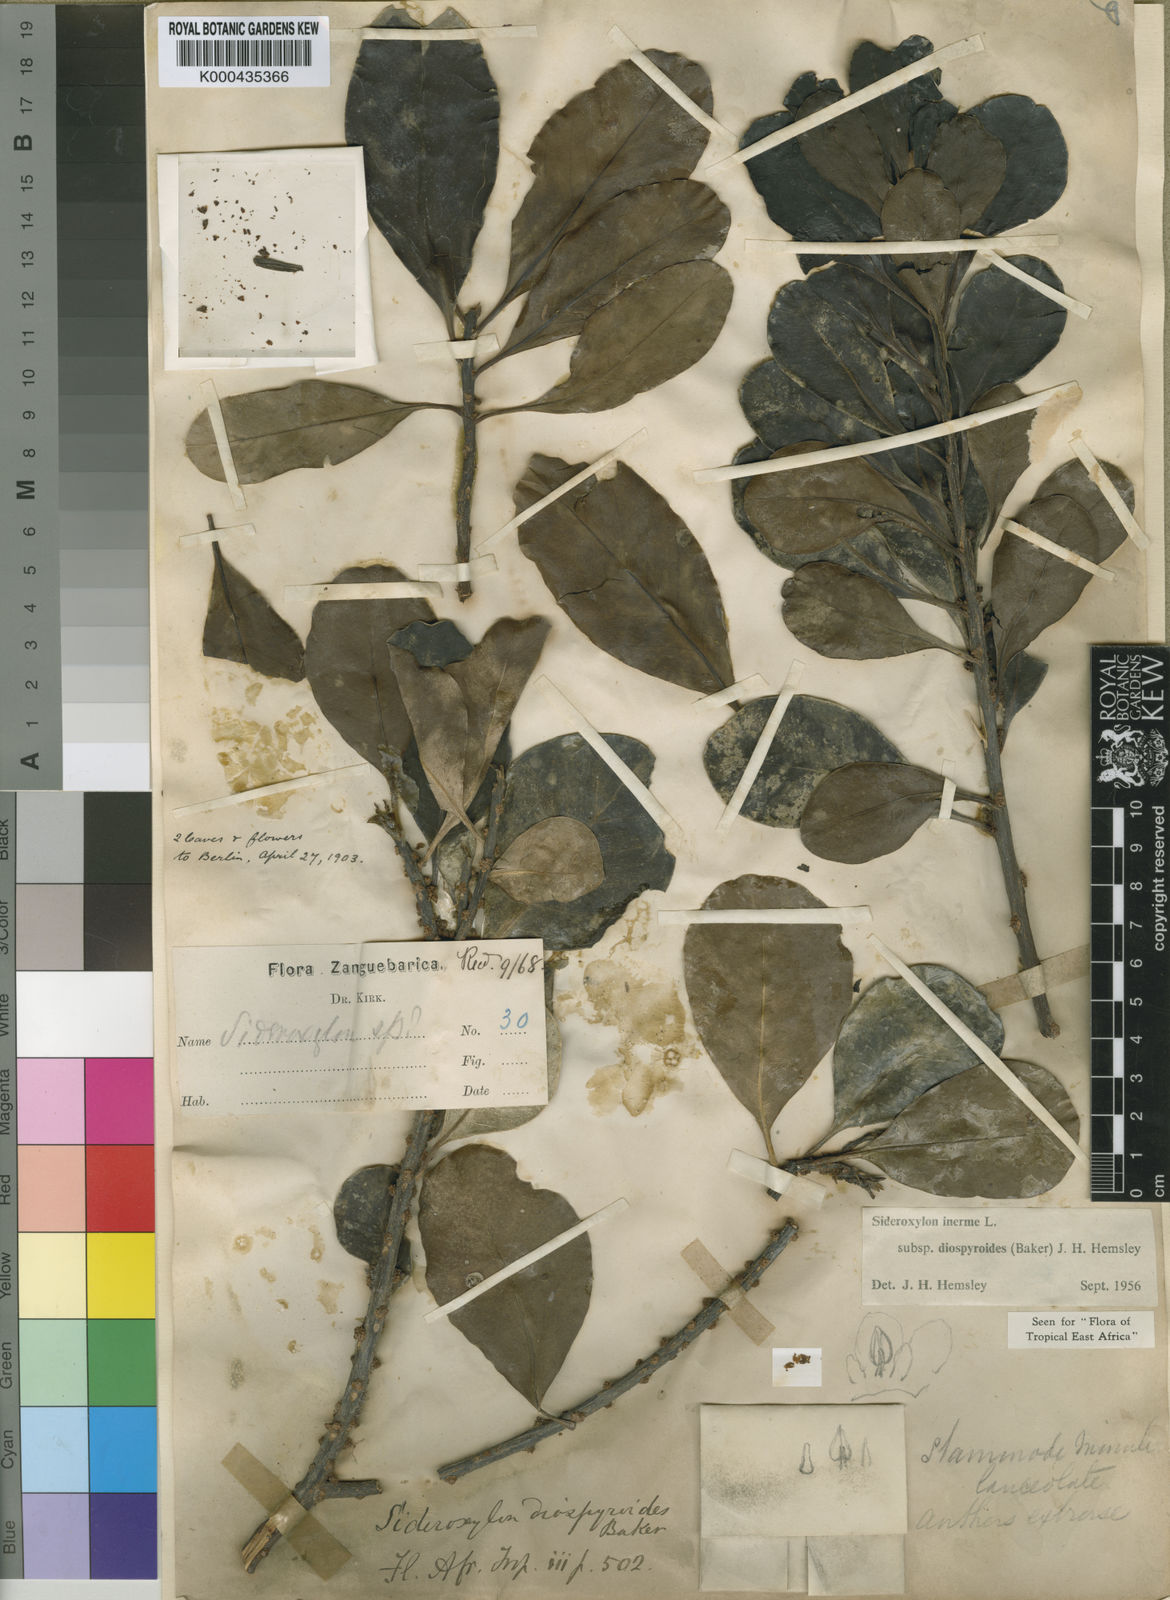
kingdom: Plantae
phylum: Tracheophyta
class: Magnoliopsida
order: Ericales
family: Sapotaceae
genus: Sideroxylon
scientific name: Sideroxylon inerme
